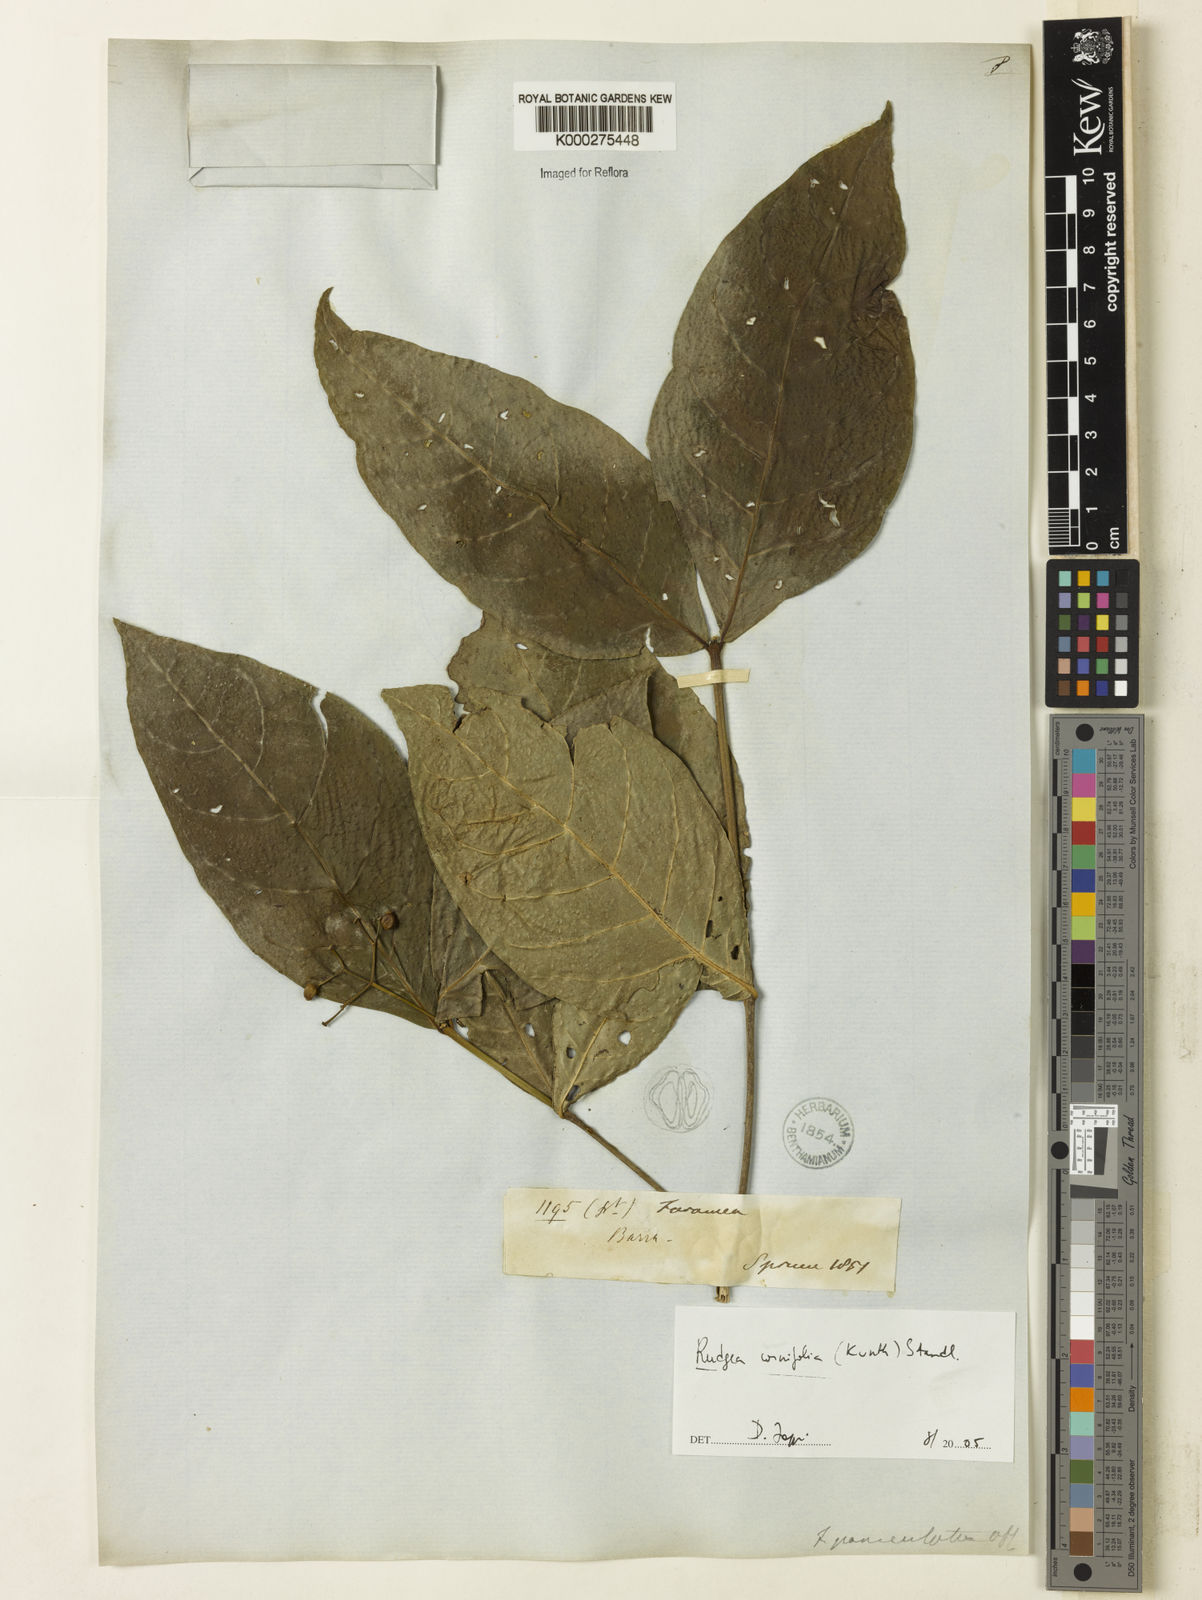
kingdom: Plantae
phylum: Tracheophyta
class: Magnoliopsida
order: Gentianales
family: Rubiaceae
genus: Rudgea
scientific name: Rudgea cornifolia
